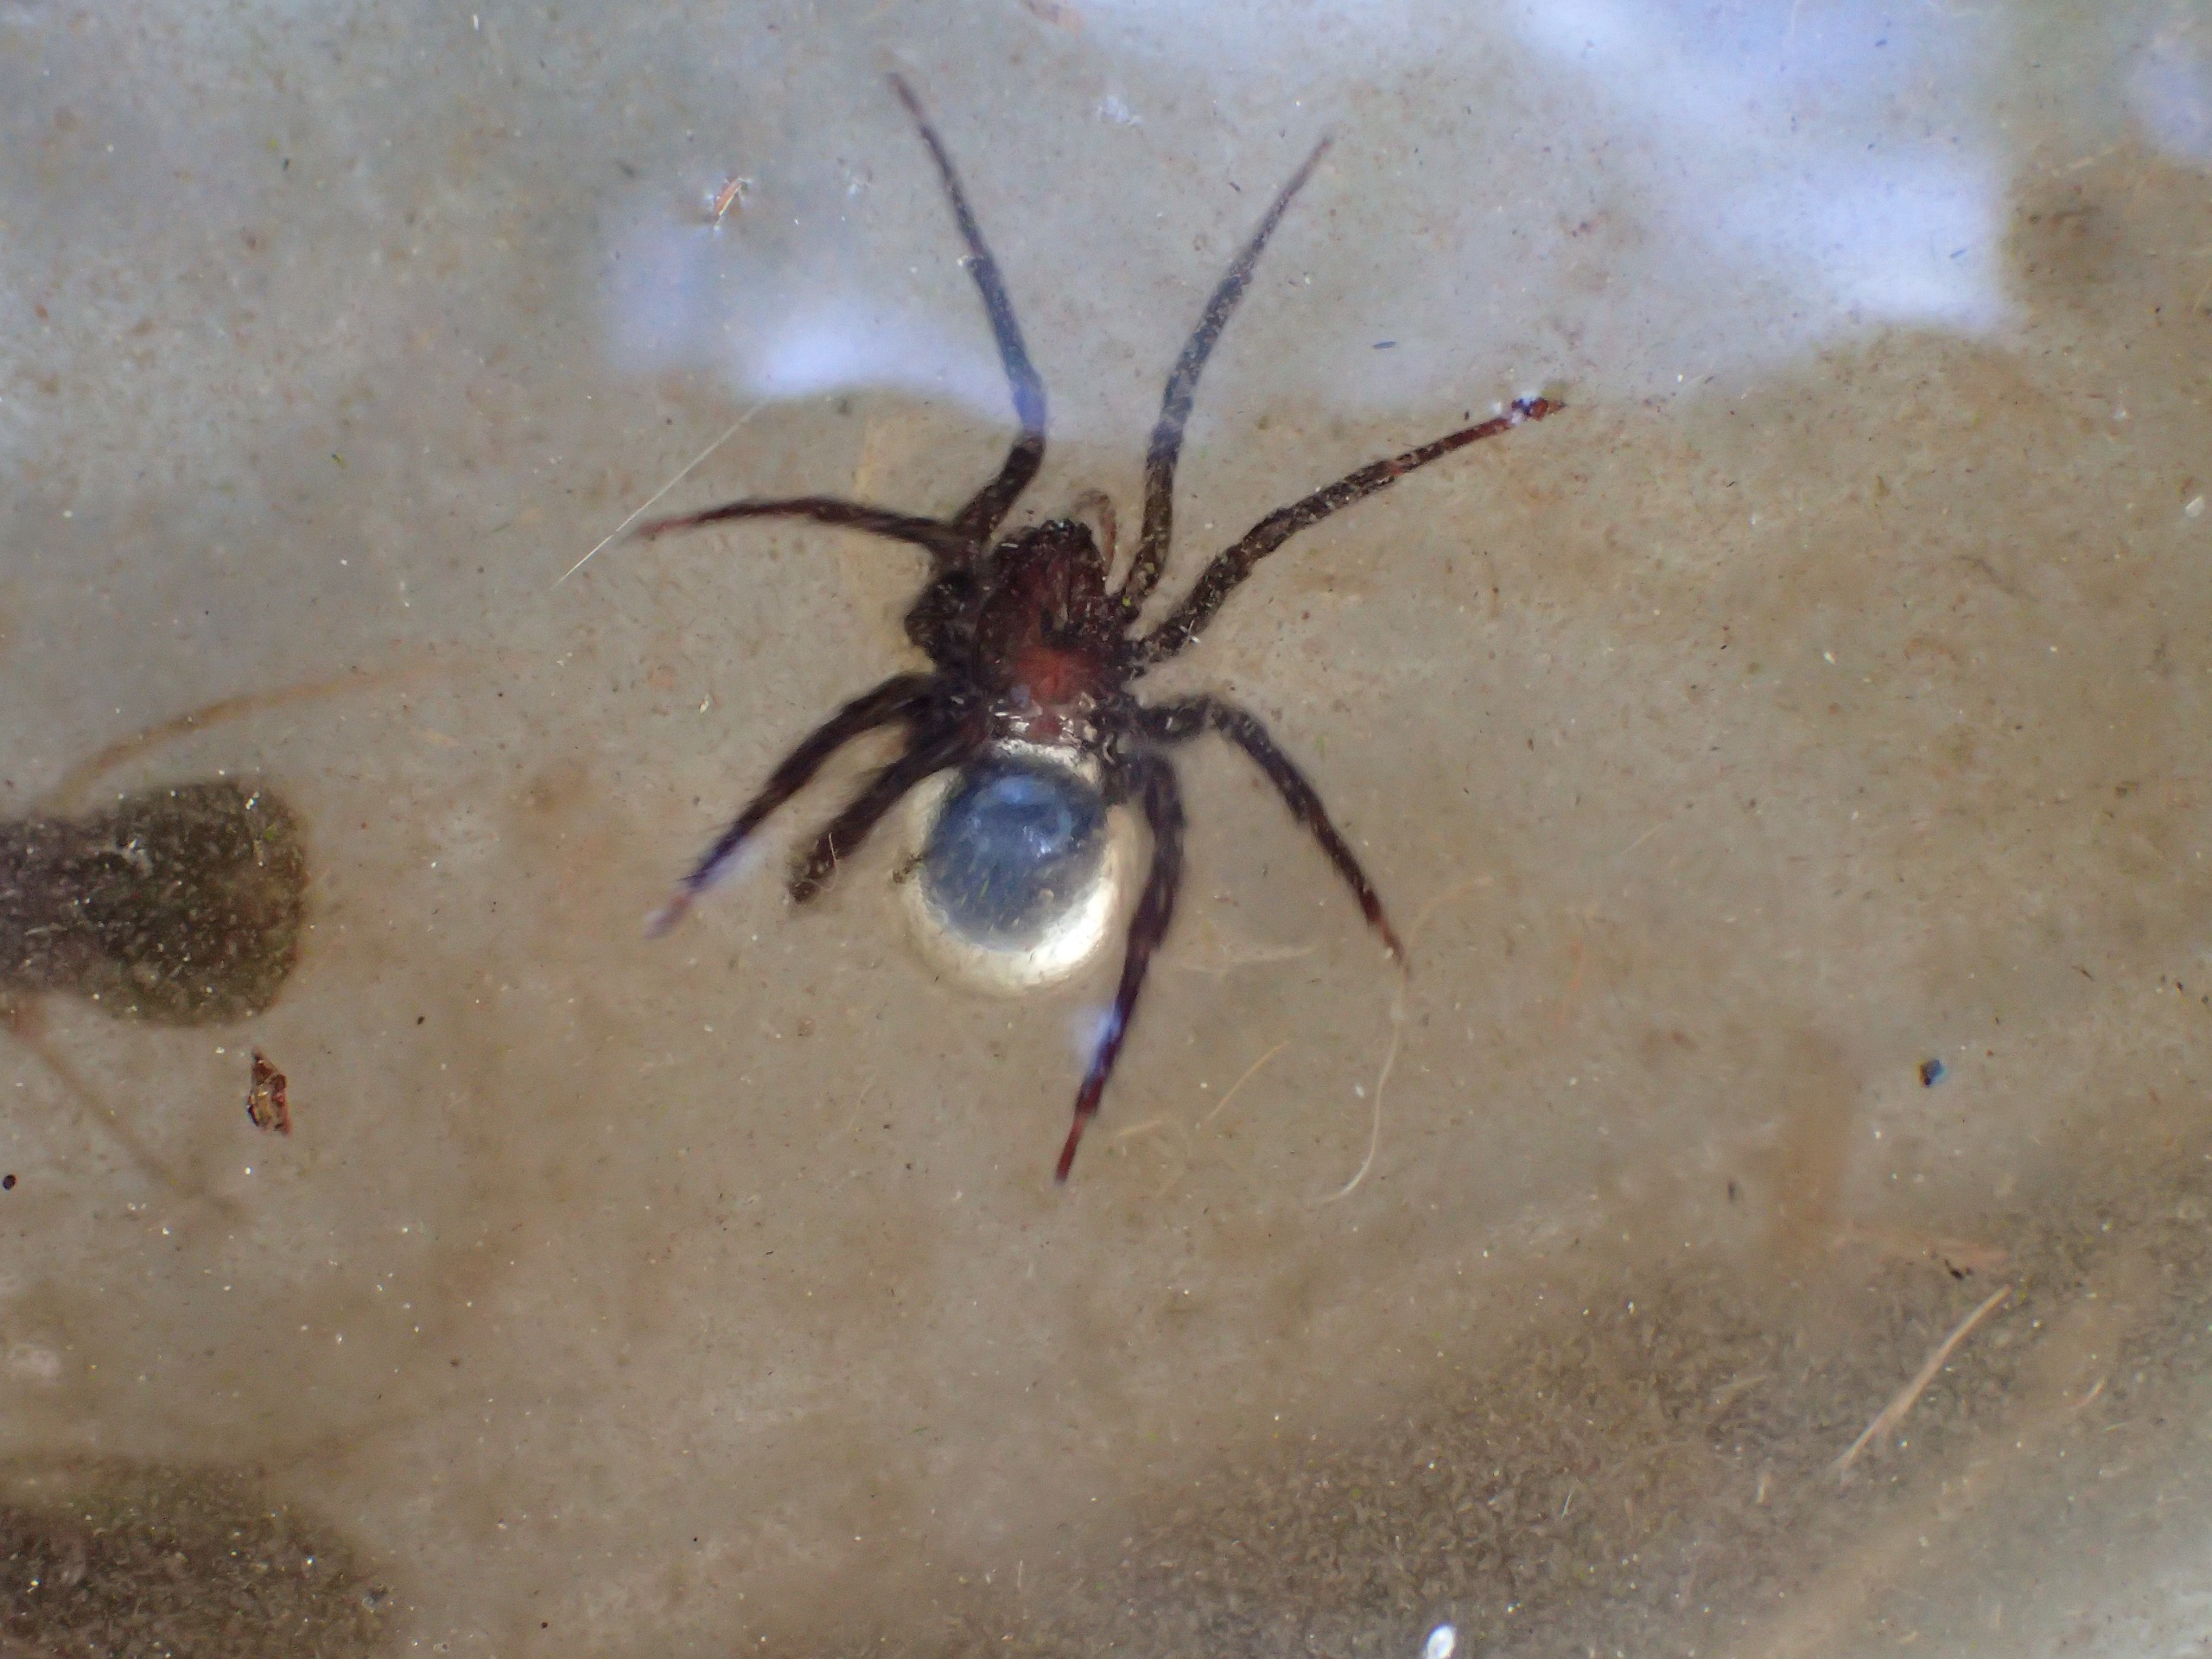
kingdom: Animalia
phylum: Arthropoda
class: Arachnida
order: Araneae
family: Dictynidae
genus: Argyroneta
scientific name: Argyroneta aquatica
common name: Vandedderkop
